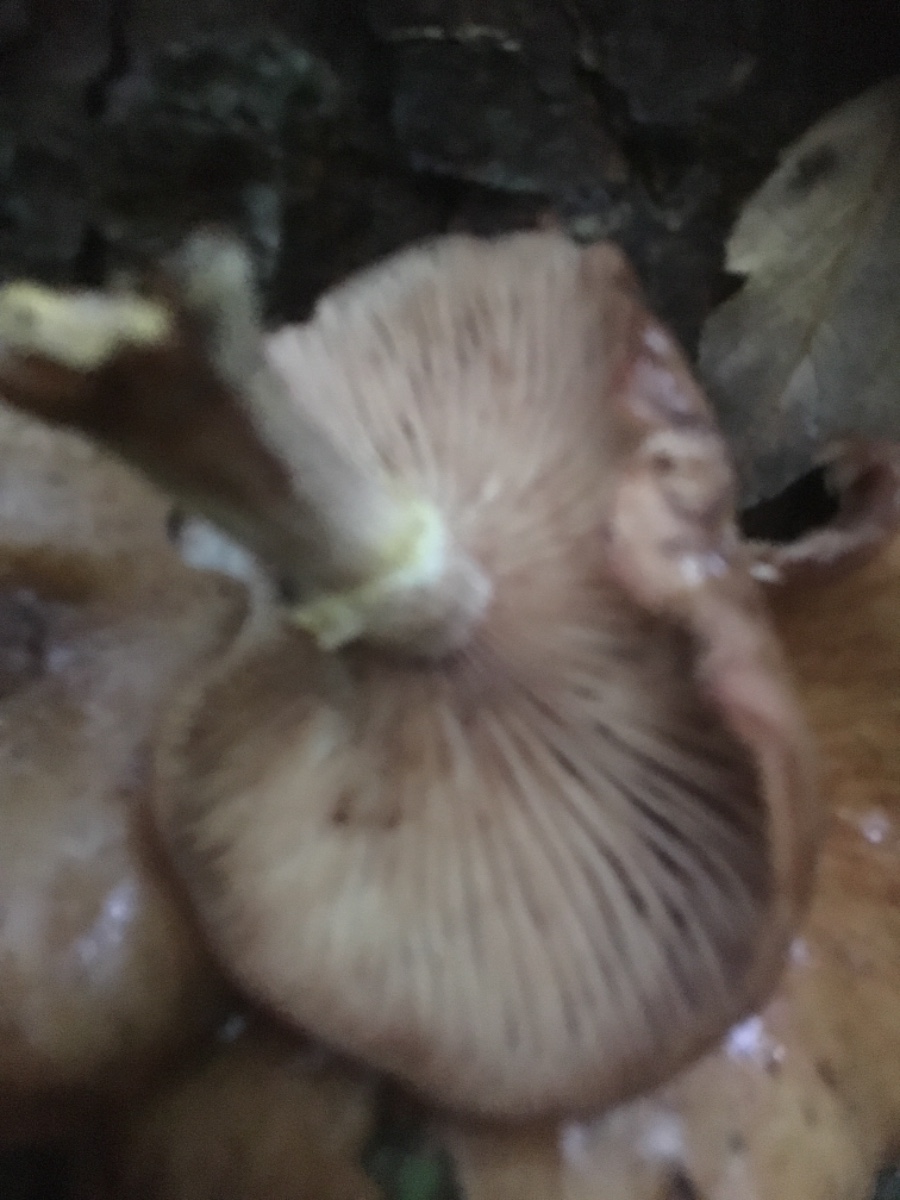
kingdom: Fungi
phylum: Basidiomycota
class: Agaricomycetes
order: Agaricales
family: Physalacriaceae
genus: Armillaria
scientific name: Armillaria
